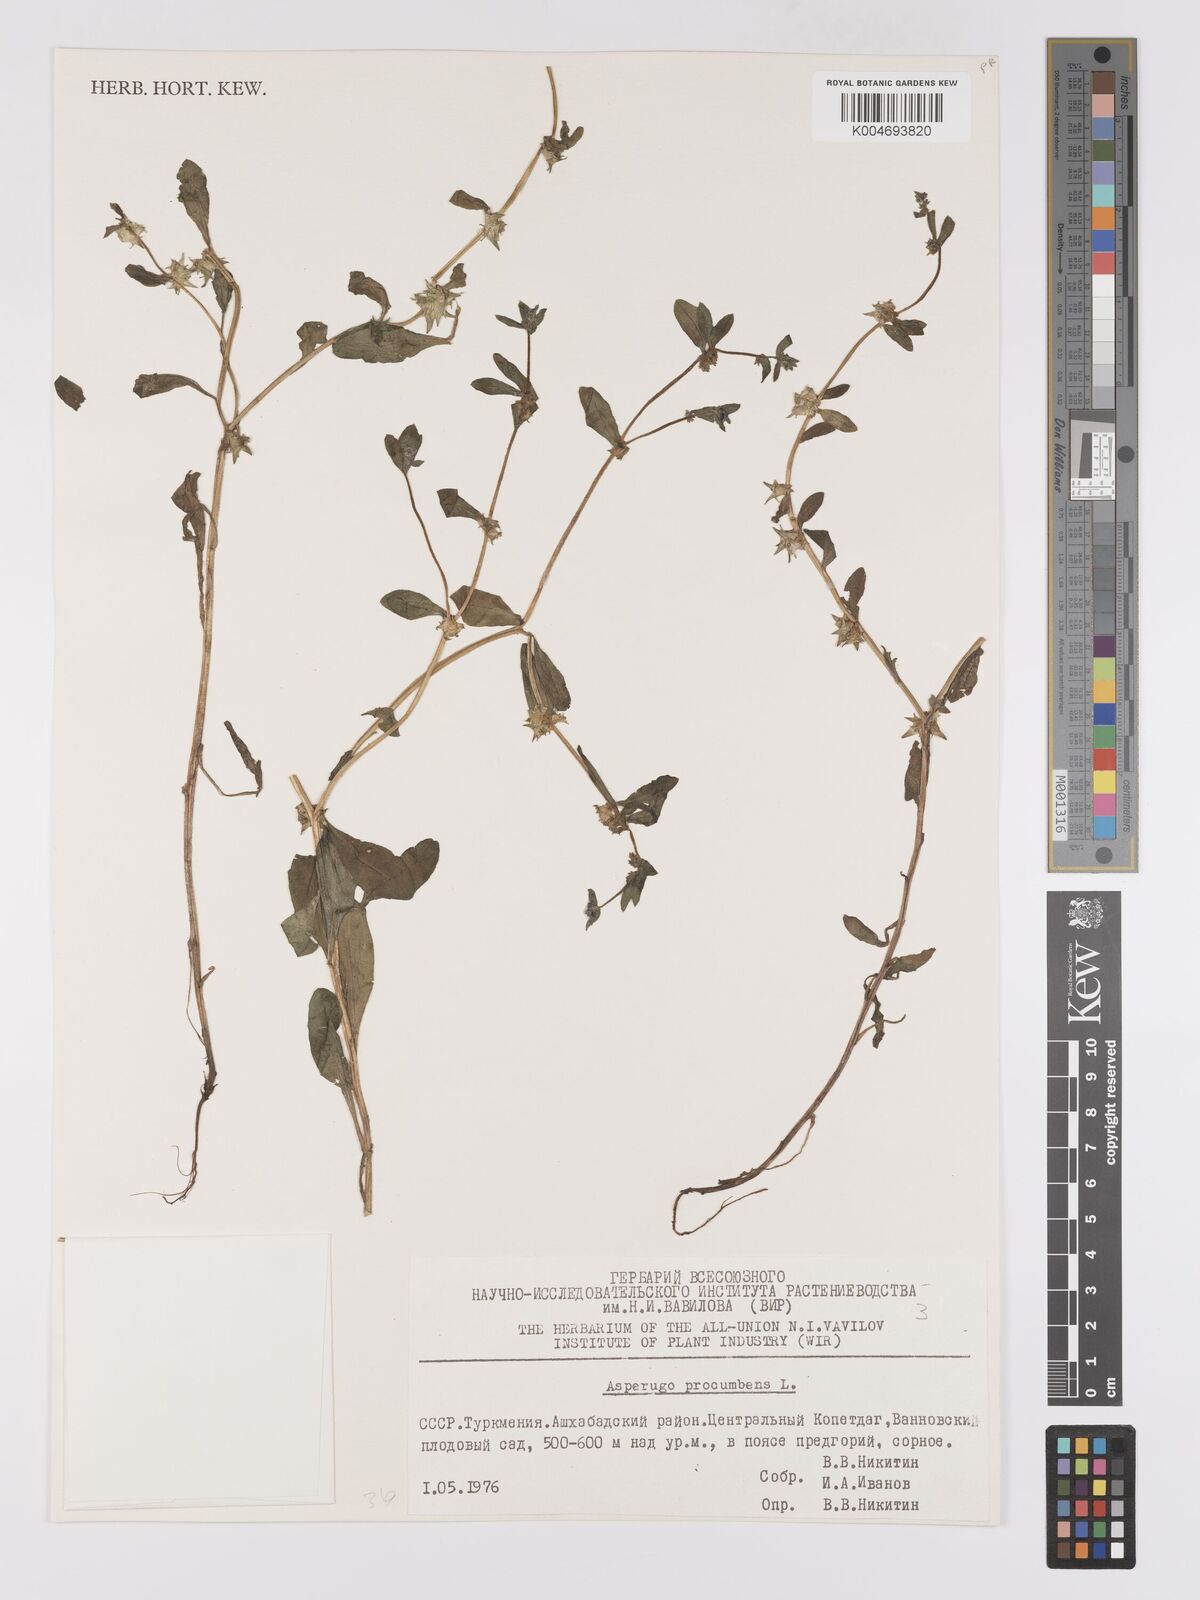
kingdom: Plantae
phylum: Tracheophyta
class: Magnoliopsida
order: Boraginales
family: Boraginaceae
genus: Asperugo
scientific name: Asperugo procumbens
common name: Madwort
